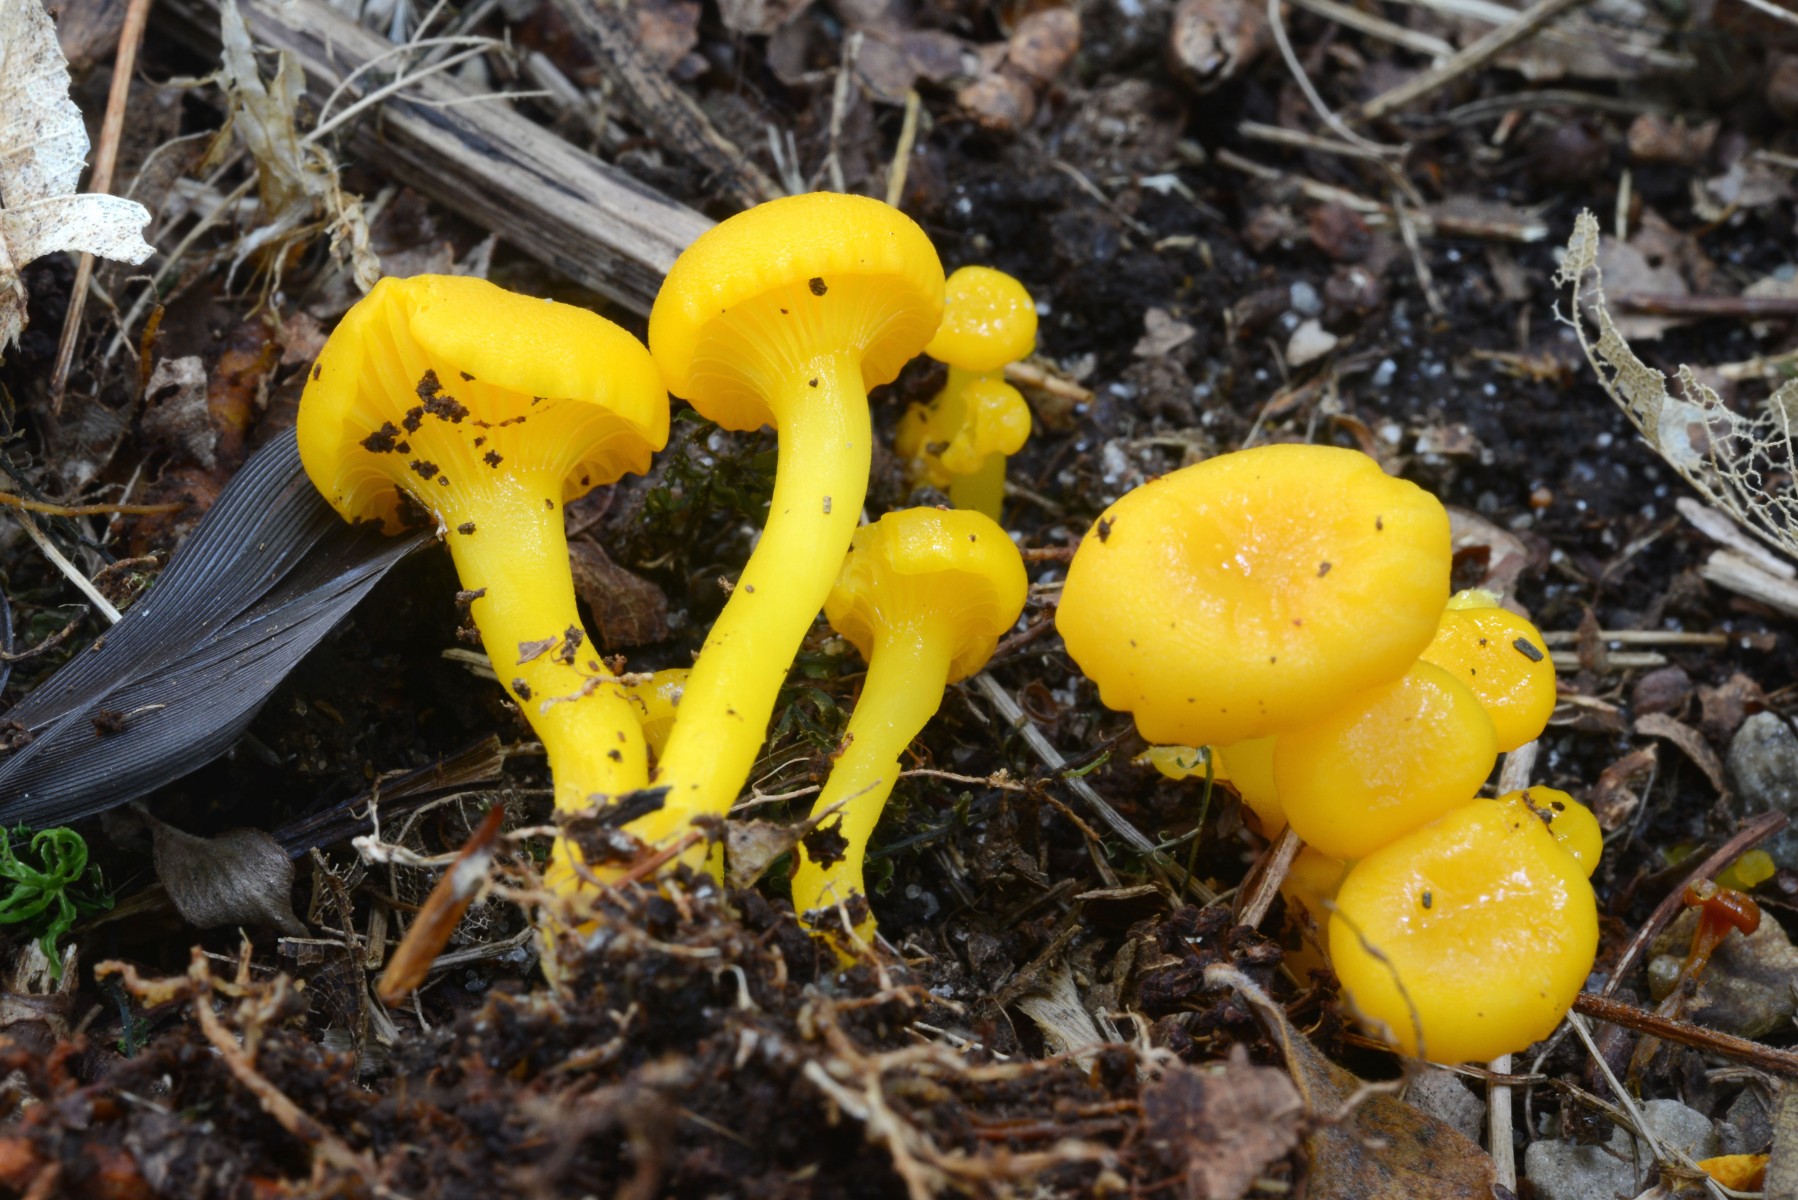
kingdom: Fungi
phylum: Basidiomycota
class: Agaricomycetes
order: Agaricales
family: Hygrophoraceae
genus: Gloioxanthomyces
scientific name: Gloioxanthomyces vitellinus
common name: kromgul vokshat
